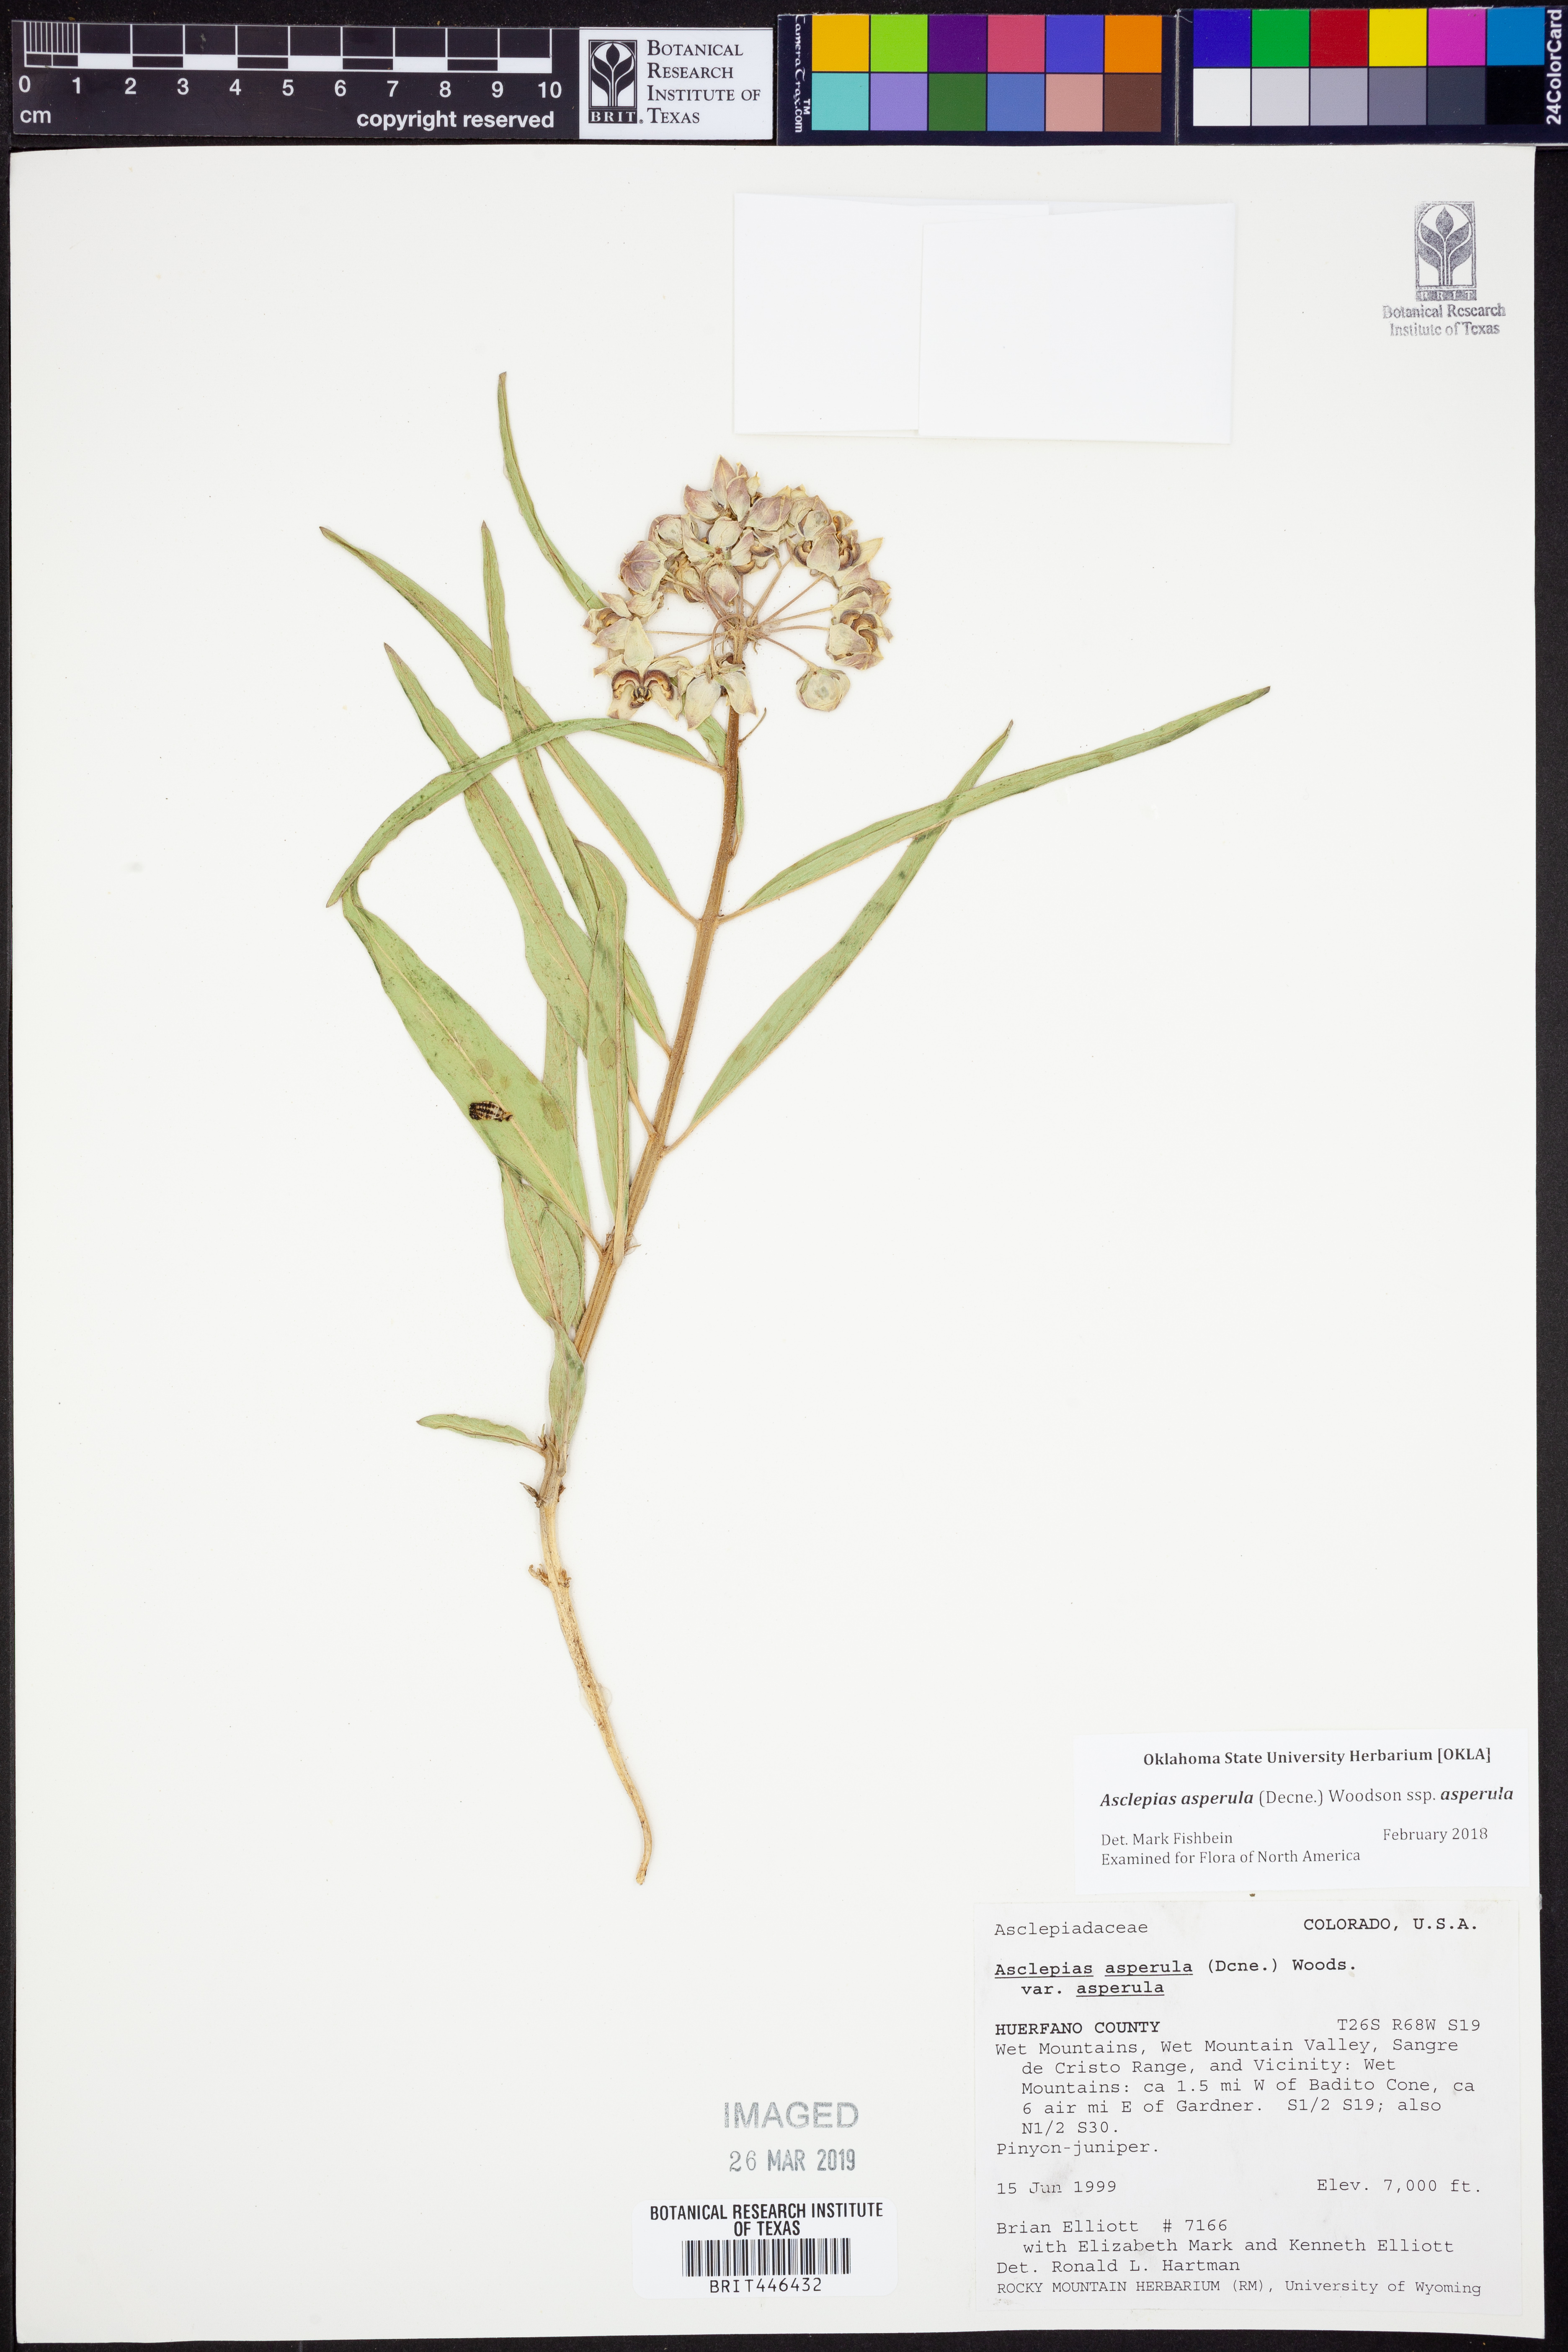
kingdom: Plantae
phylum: Tracheophyta
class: Magnoliopsida
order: Gentianales
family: Apocynaceae
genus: Asclepias
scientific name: Asclepias asperula
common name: Antelope horns
